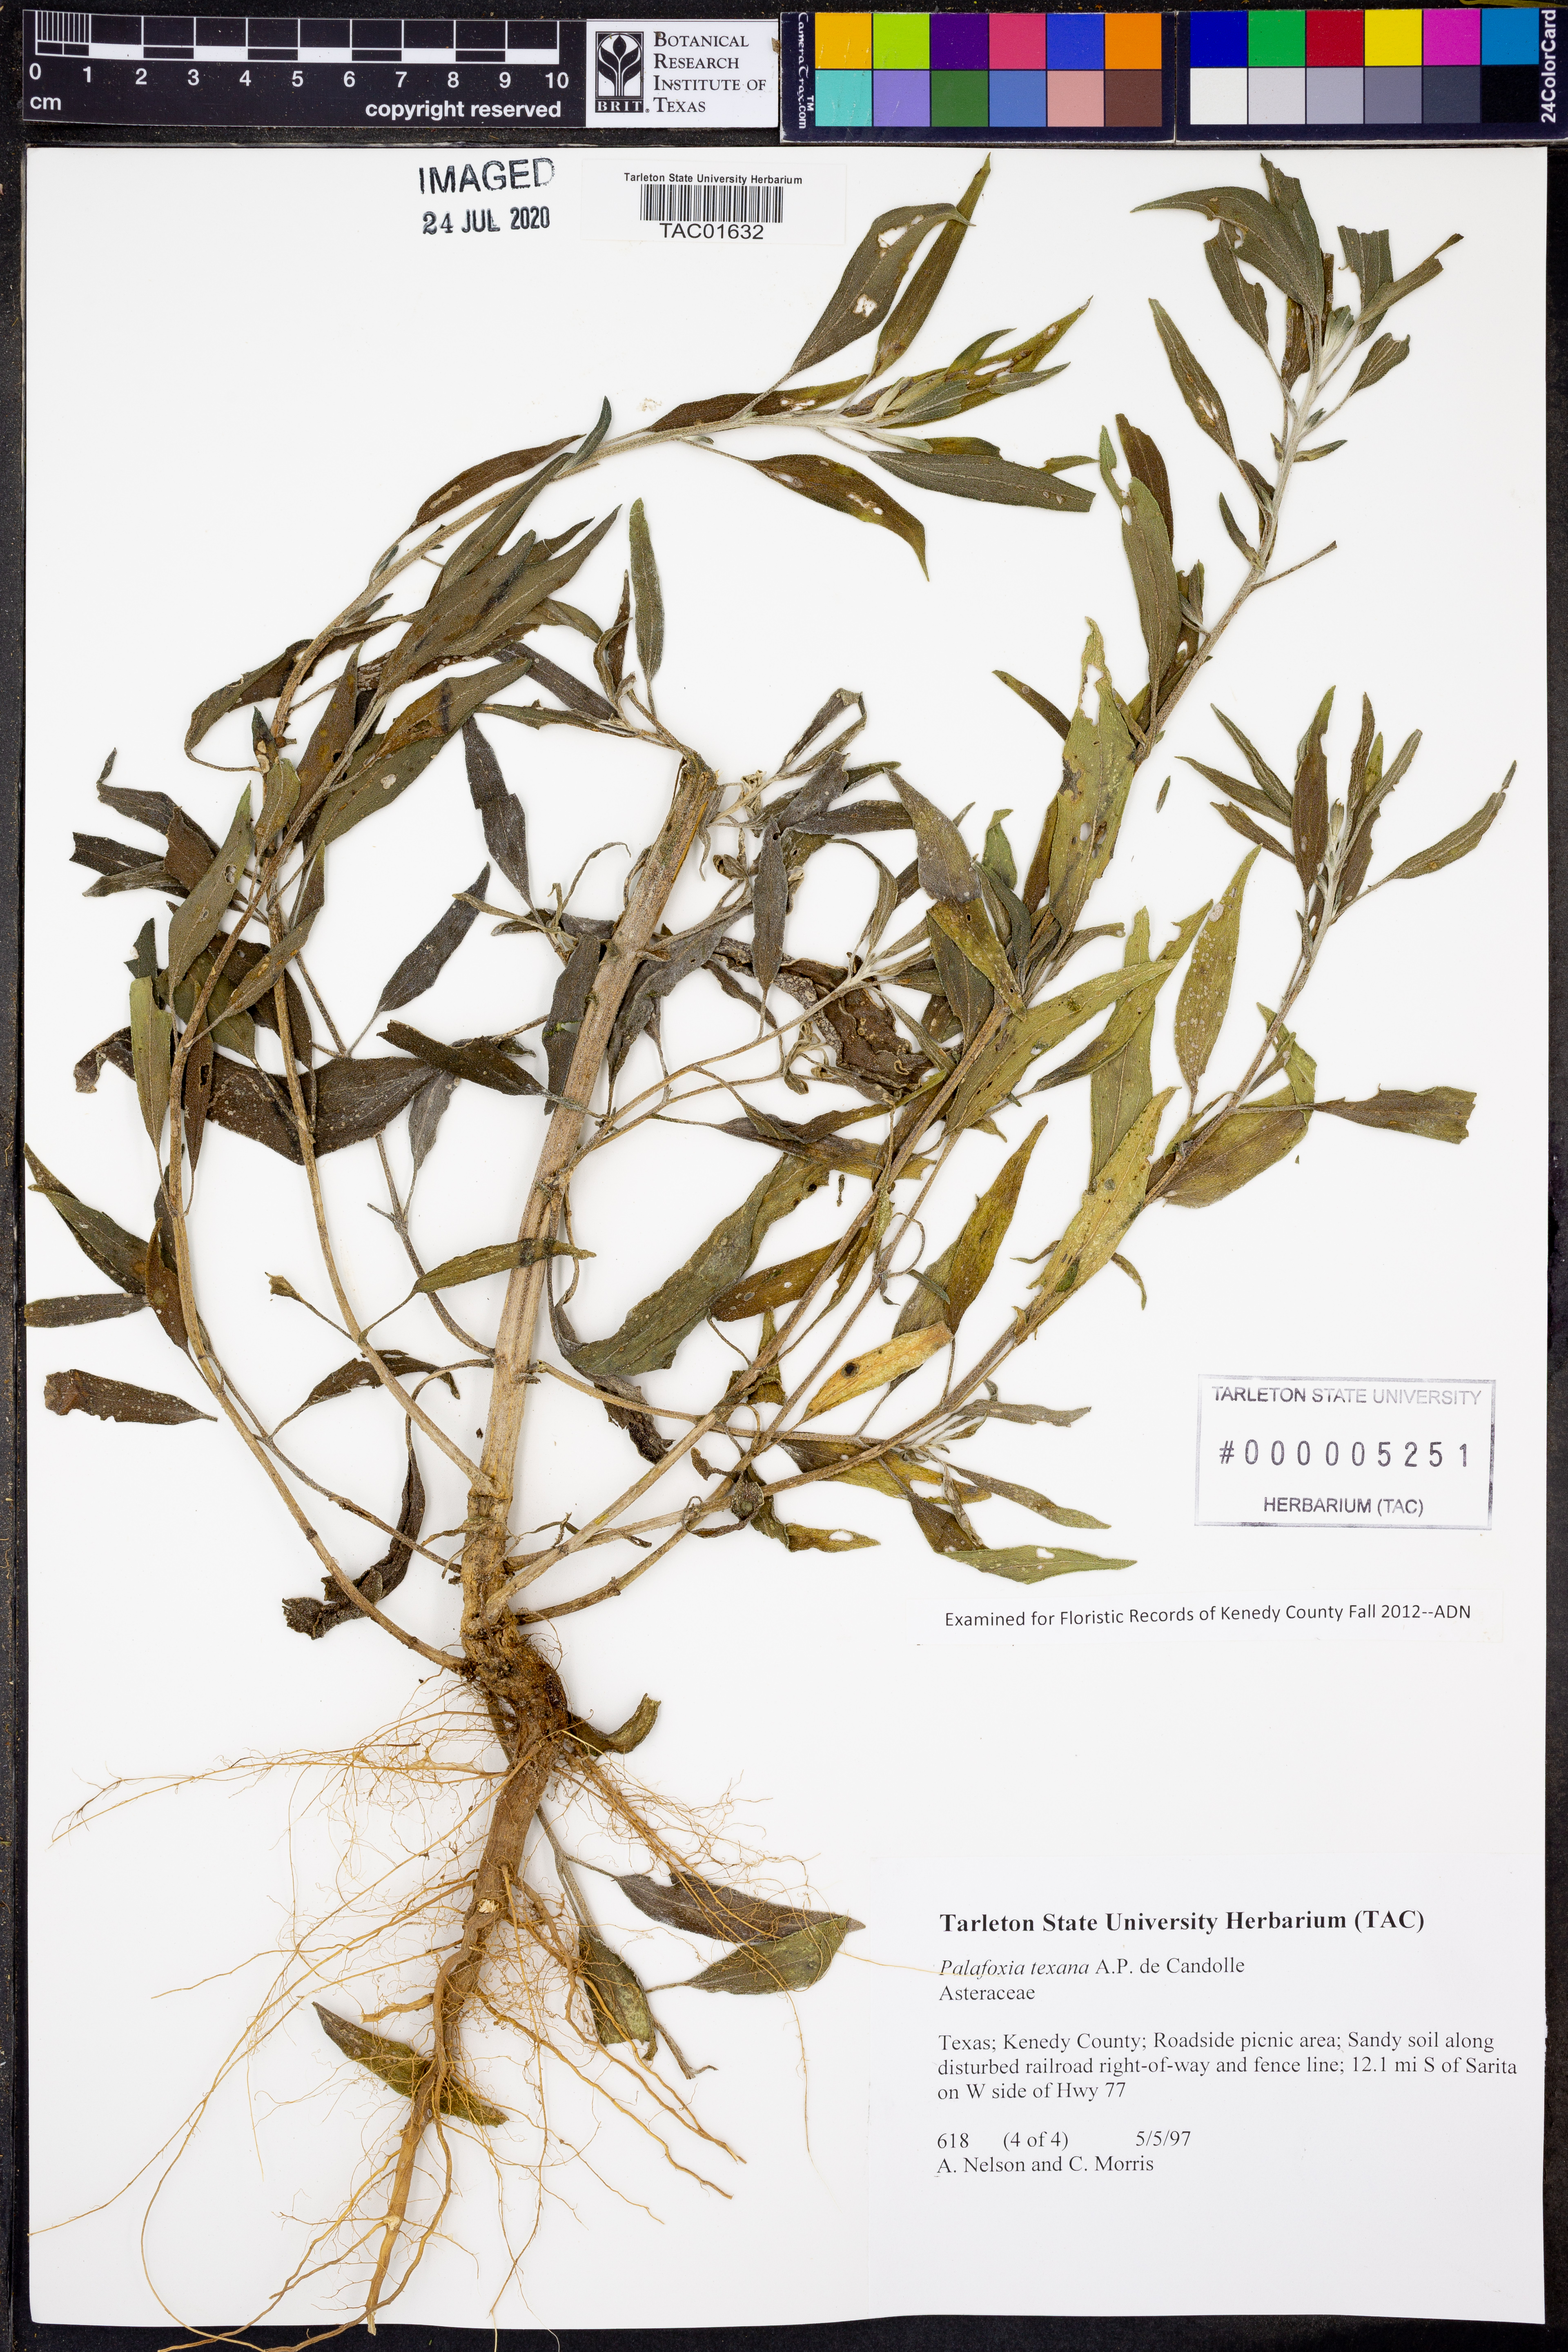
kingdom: Plantae
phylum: Tracheophyta
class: Magnoliopsida
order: Asterales
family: Asteraceae
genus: Palafoxia
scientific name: Palafoxia texana
